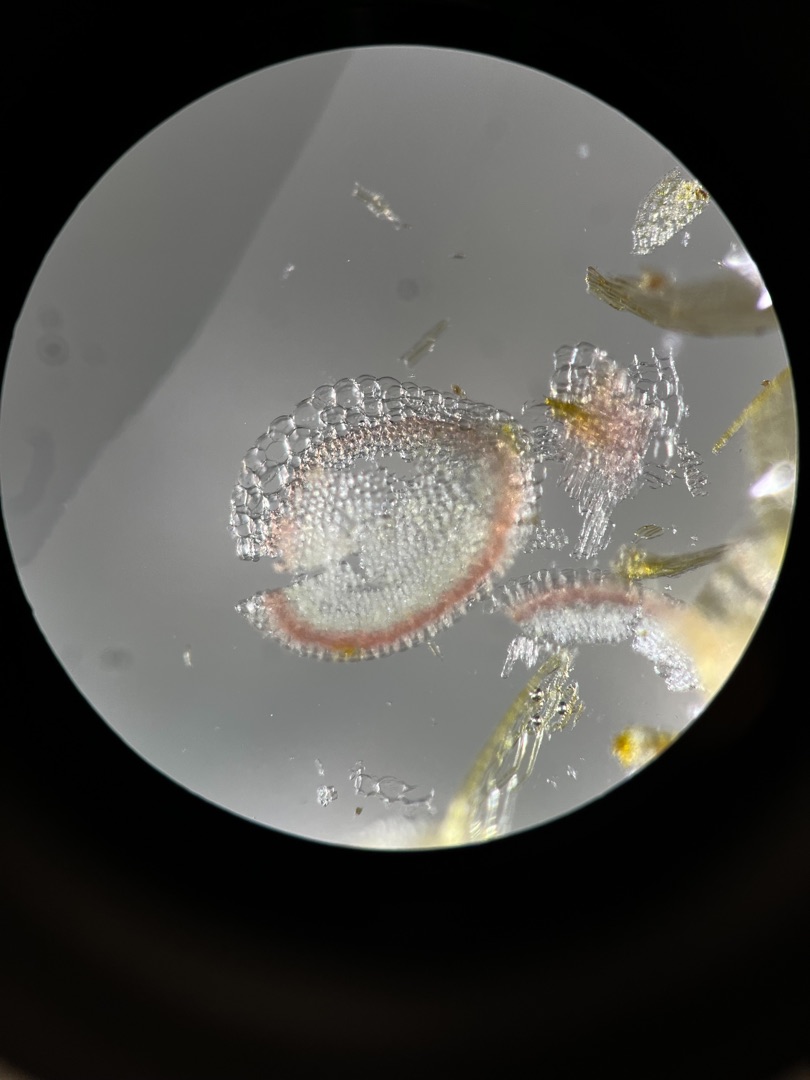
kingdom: Plantae
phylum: Bryophyta
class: Sphagnopsida
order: Sphagnales
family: Sphagnaceae
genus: Sphagnum
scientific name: Sphagnum contortum
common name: Krumbladet tørvemos
